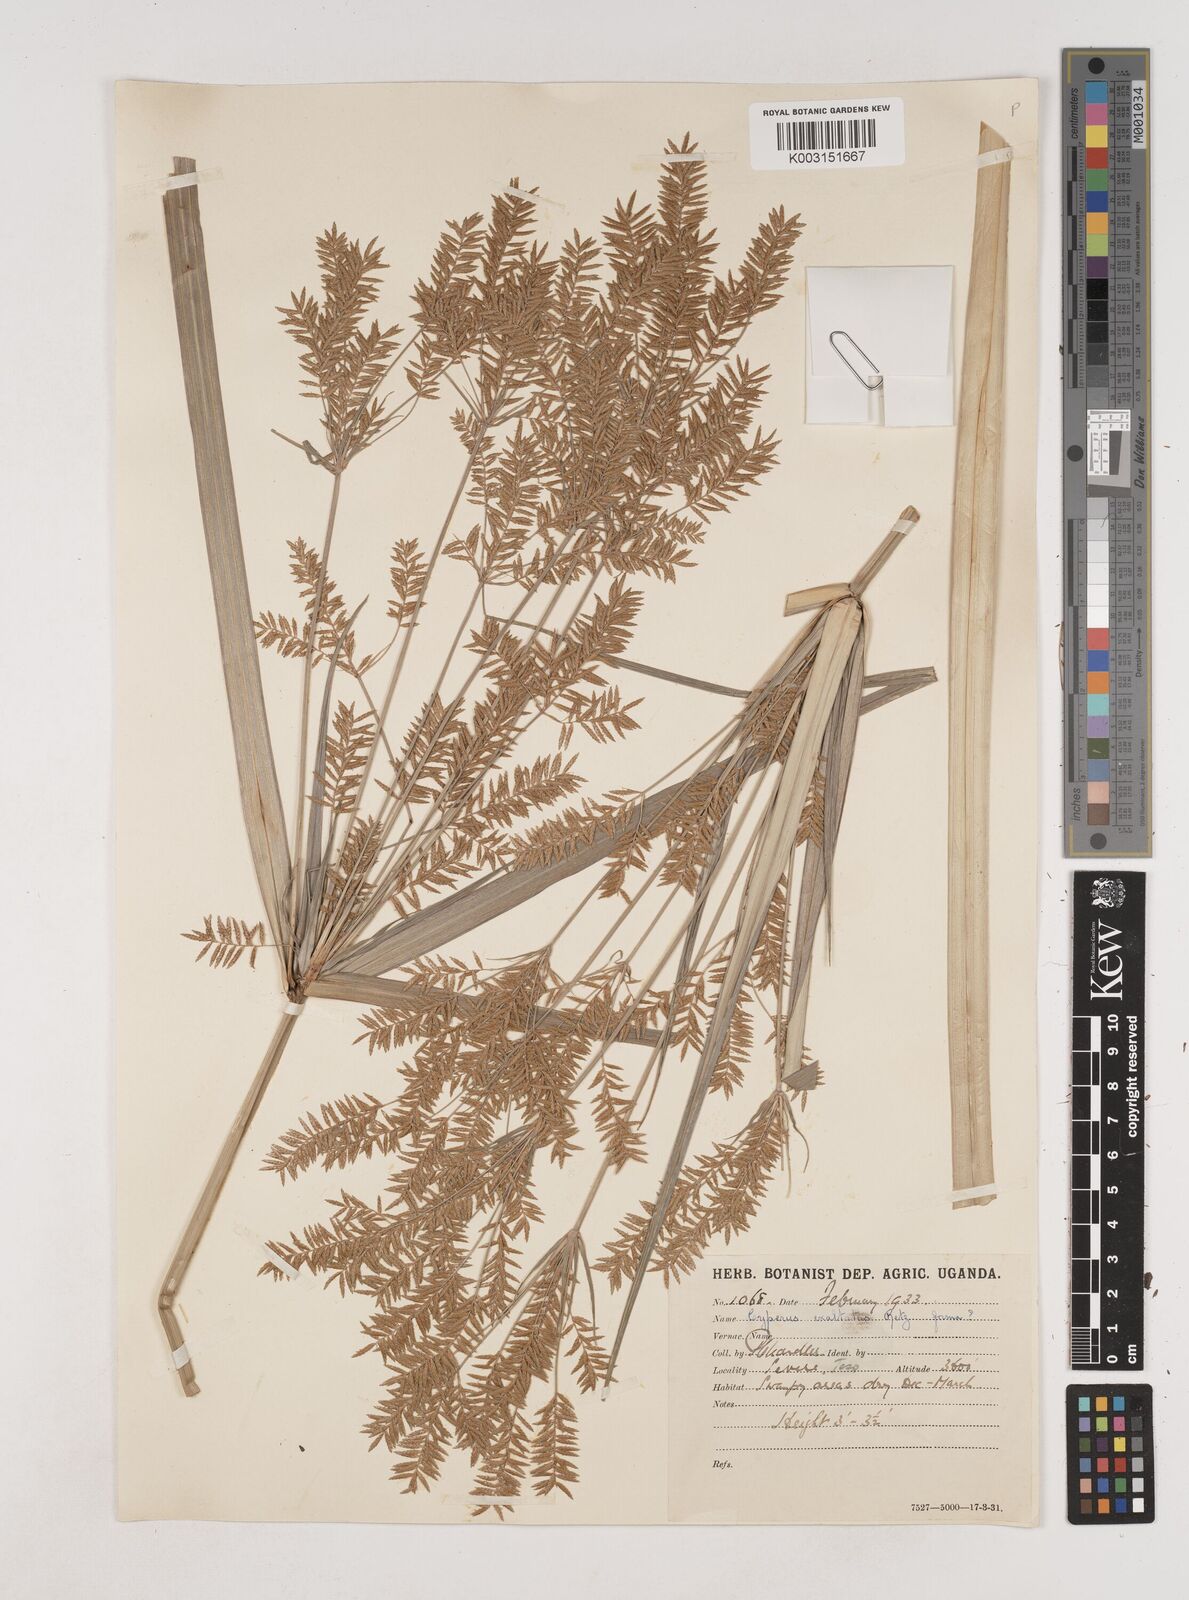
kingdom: Plantae
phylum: Tracheophyta
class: Liliopsida
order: Poales
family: Cyperaceae
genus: Cyperus
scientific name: Cyperus exaltatus
